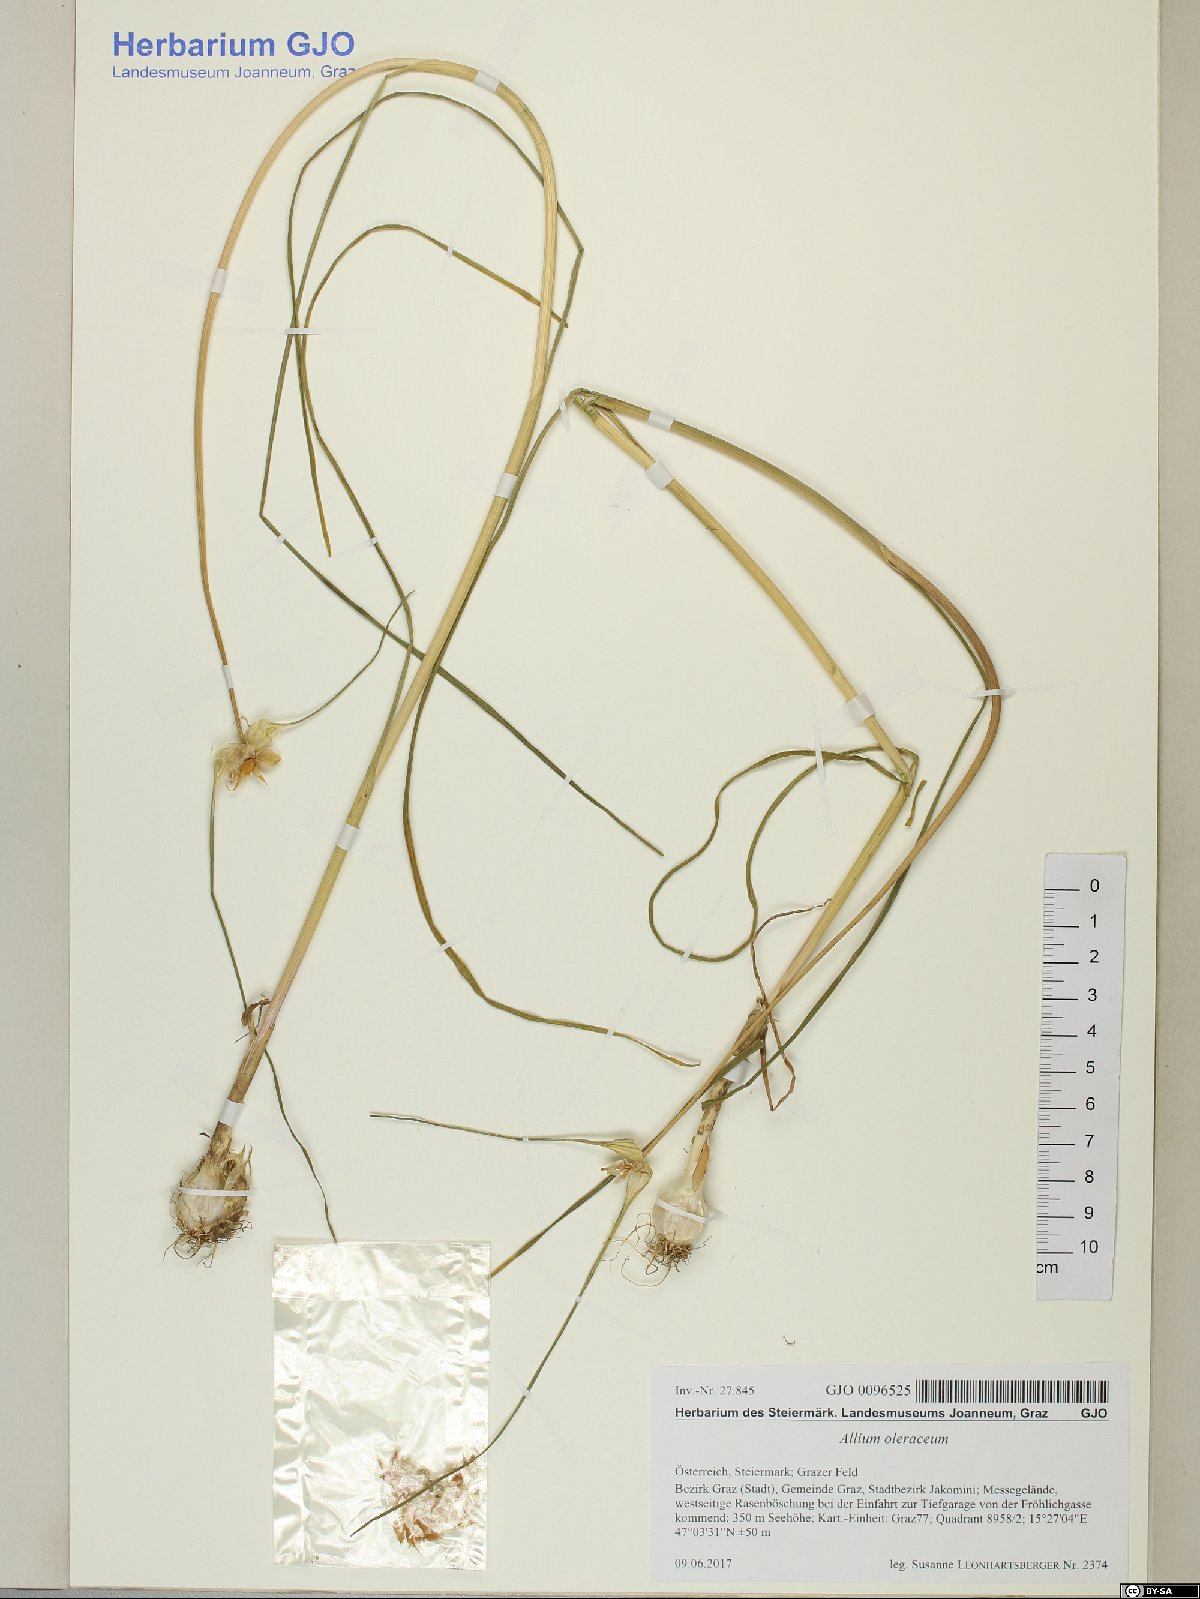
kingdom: Plantae
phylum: Tracheophyta
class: Liliopsida
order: Asparagales
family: Amaryllidaceae
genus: Allium
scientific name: Allium oleraceum
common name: Field garlic
